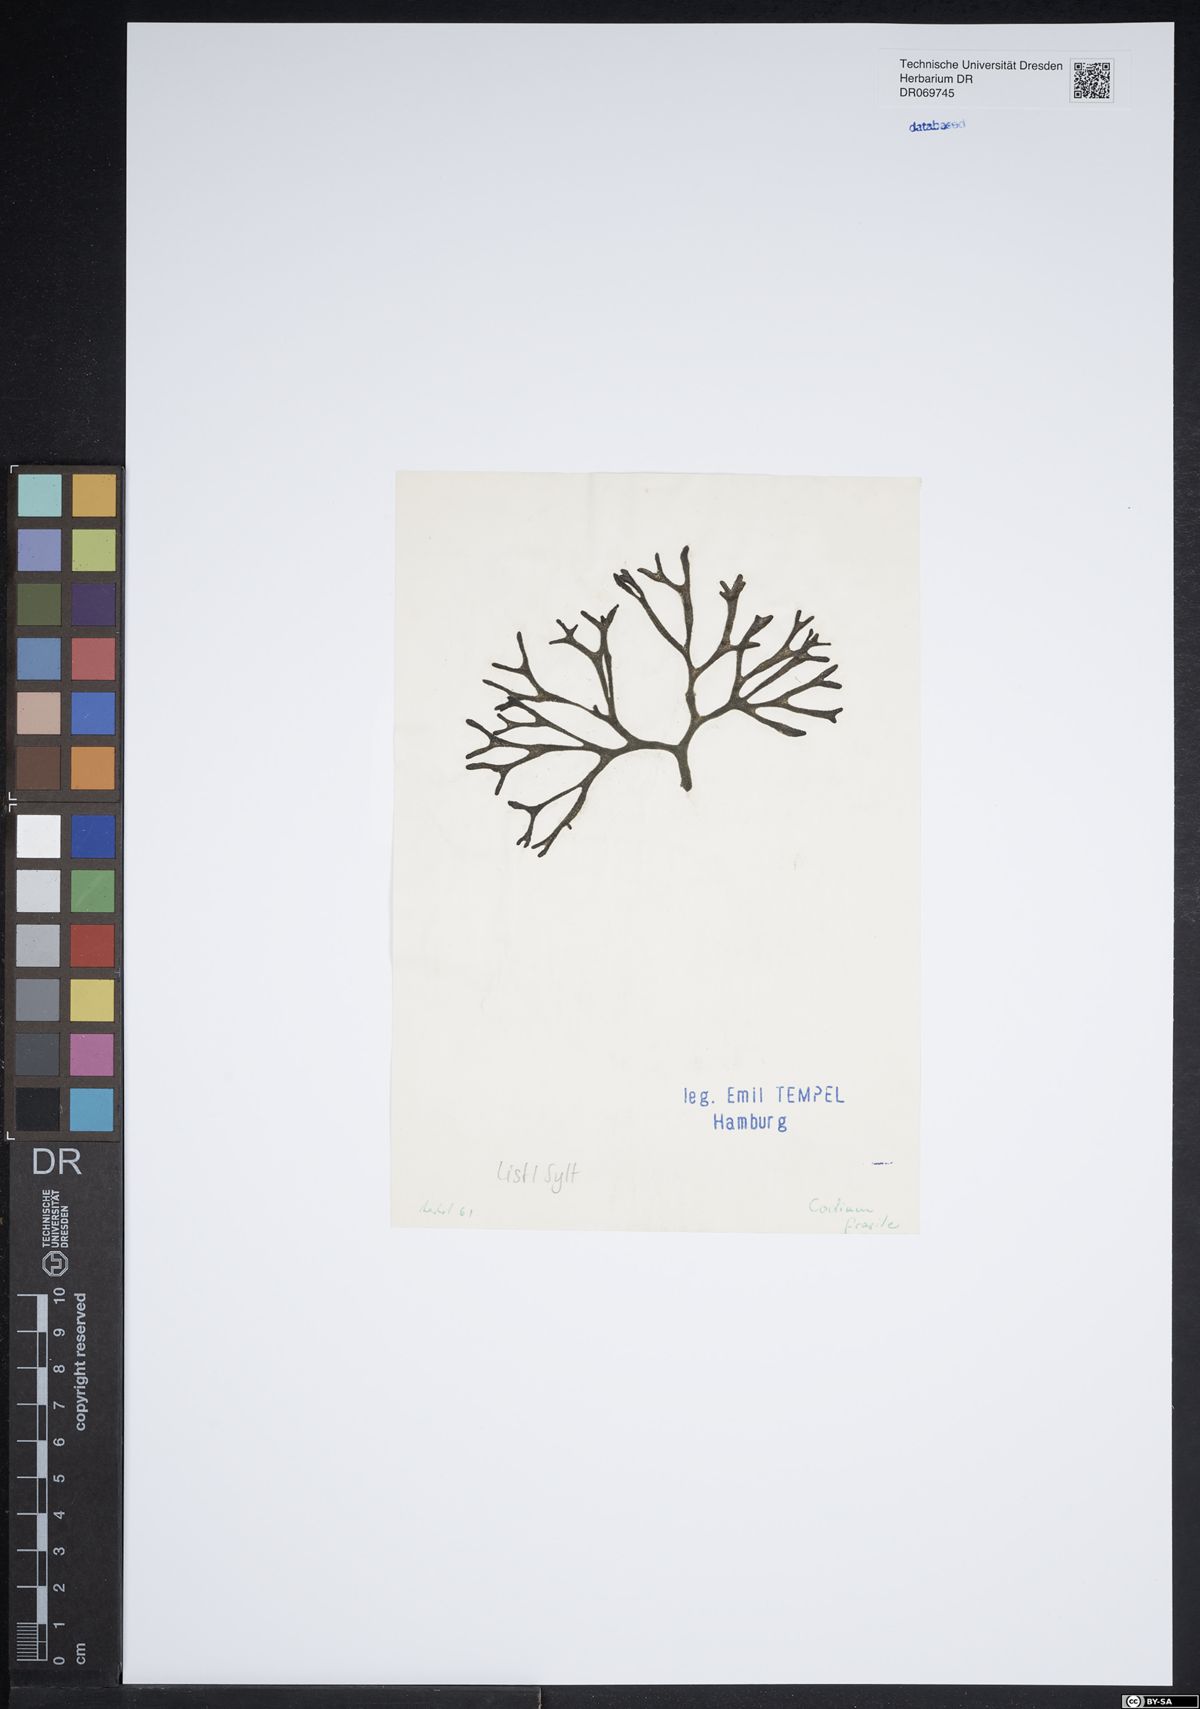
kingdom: Plantae
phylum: Chlorophyta
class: Ulvophyceae
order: Bryopsidales
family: Codiaceae
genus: Codium
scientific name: Codium fragile
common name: Dead man's fingers
